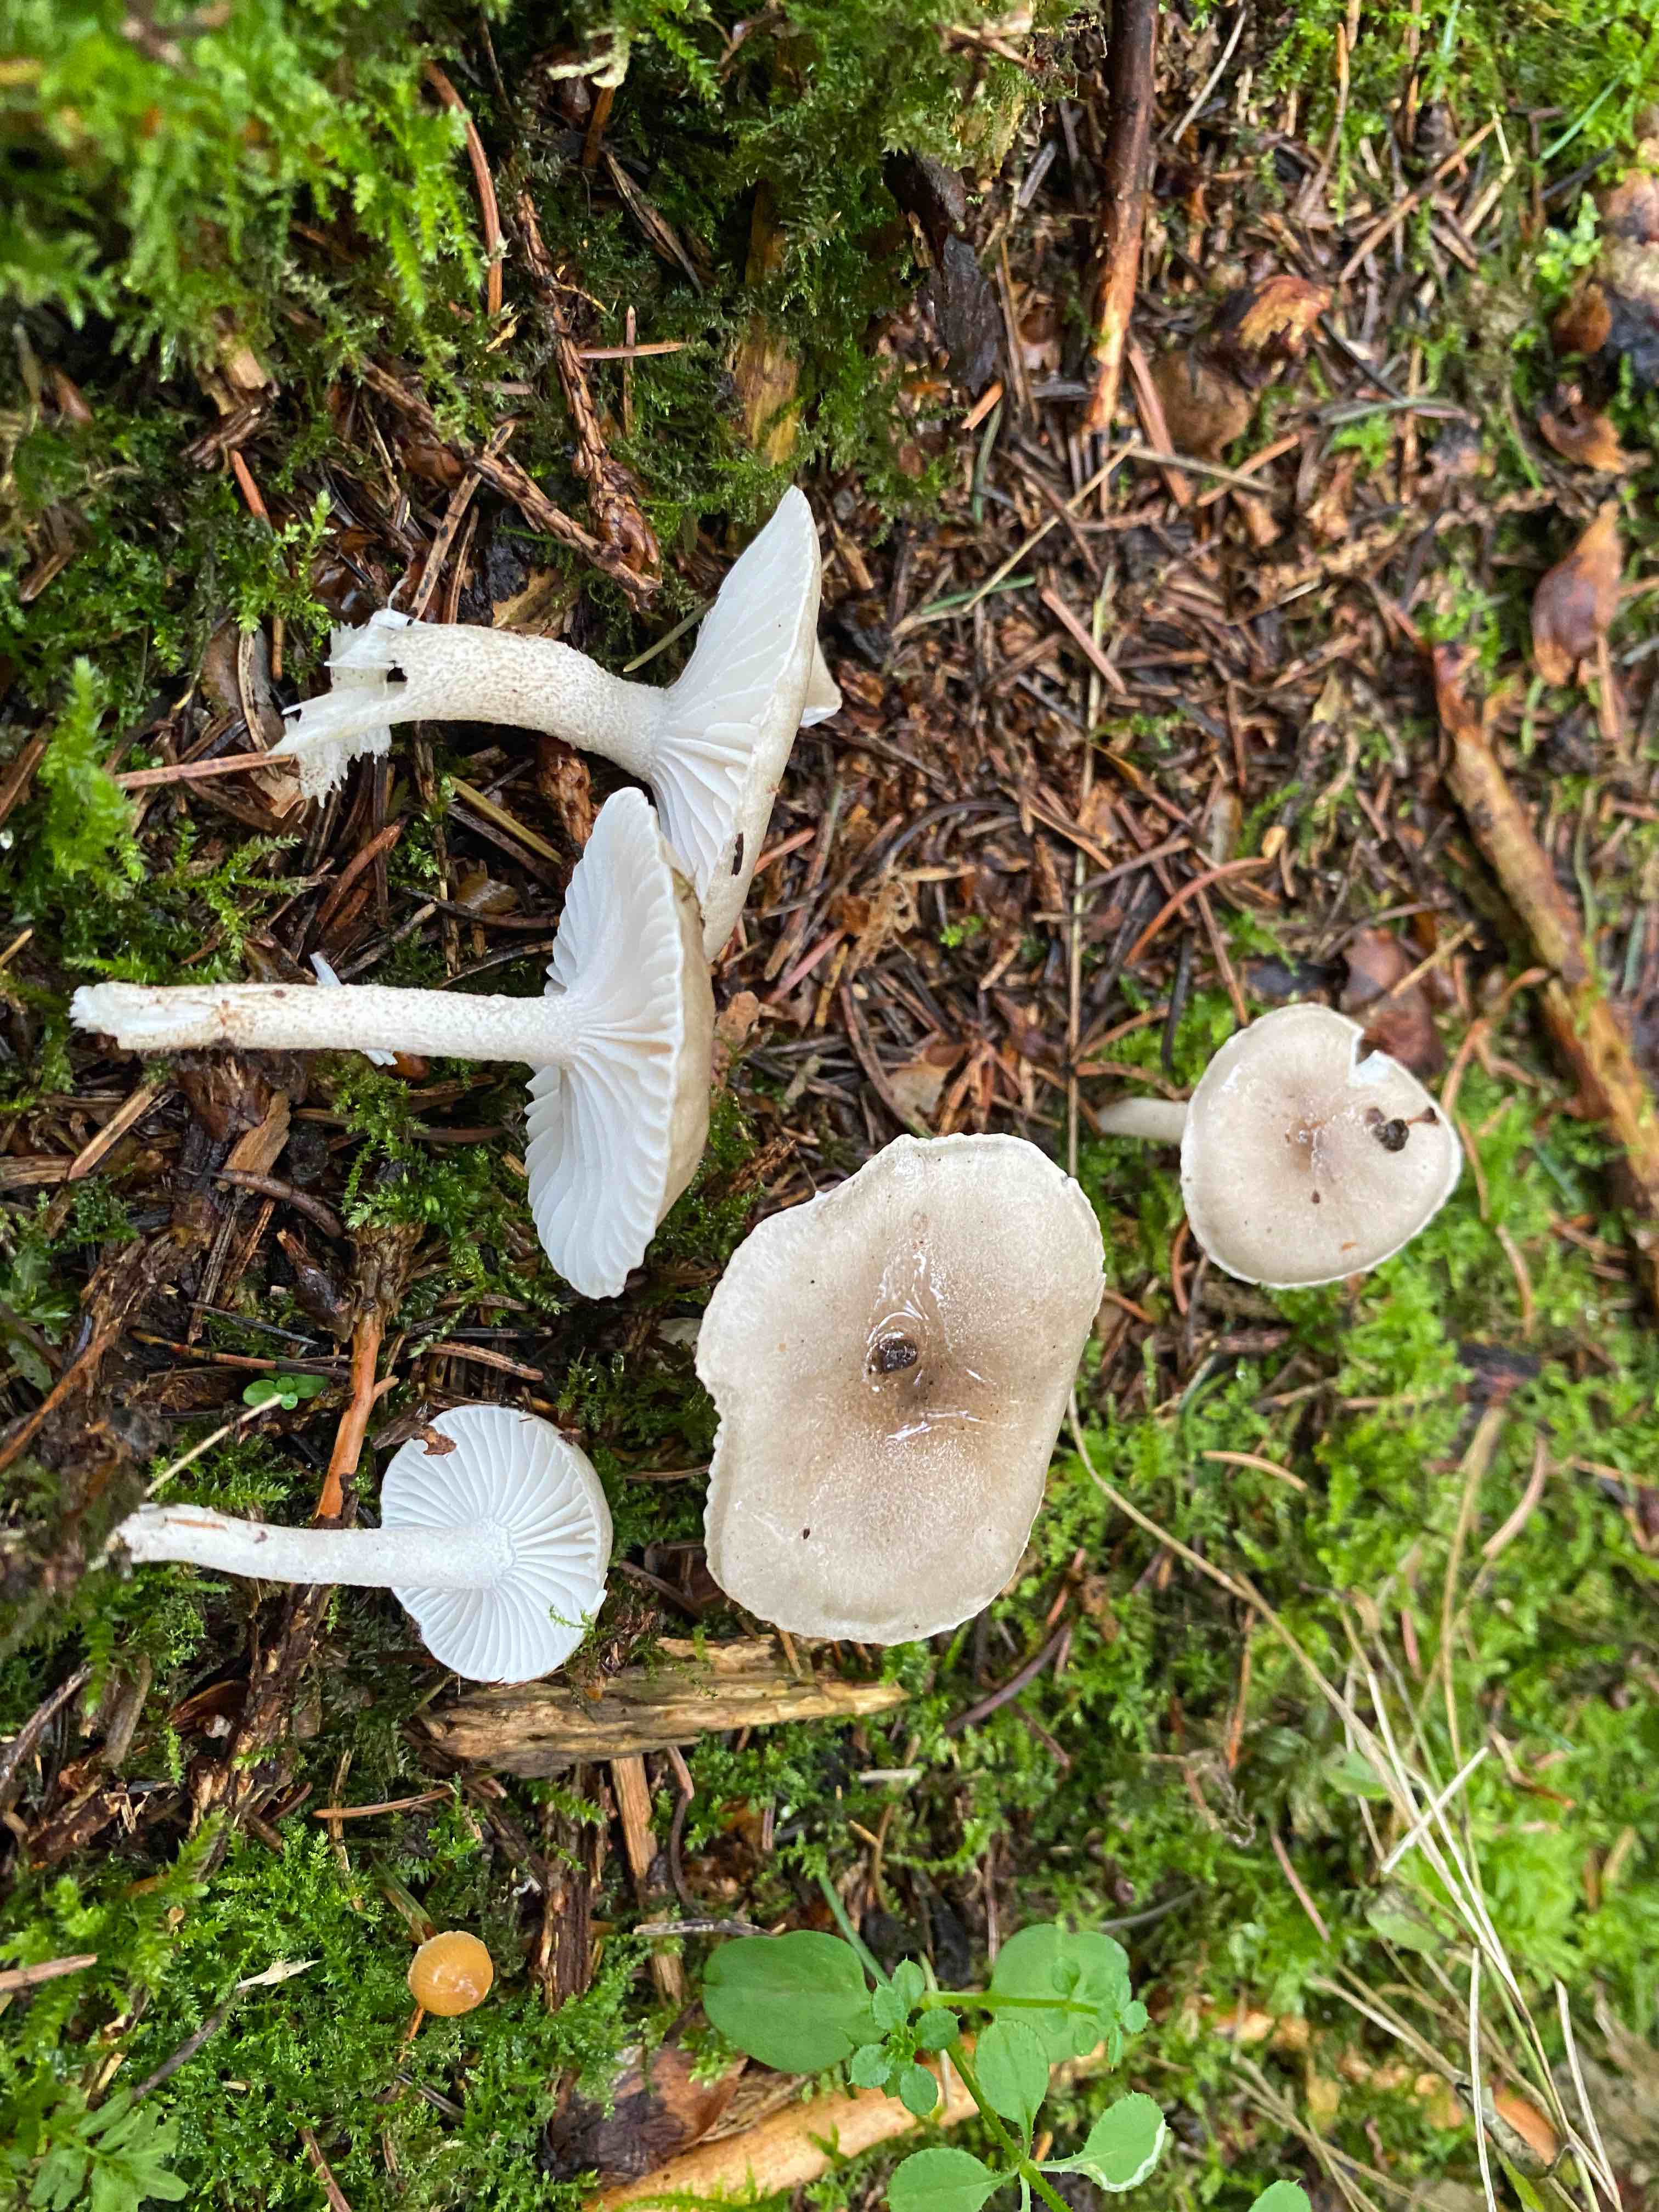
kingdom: Fungi
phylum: Basidiomycota
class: Agaricomycetes
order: Agaricales
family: Hygrophoraceae
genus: Hygrophorus
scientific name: Hygrophorus pustulatus
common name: mørkprikket sneglehat
